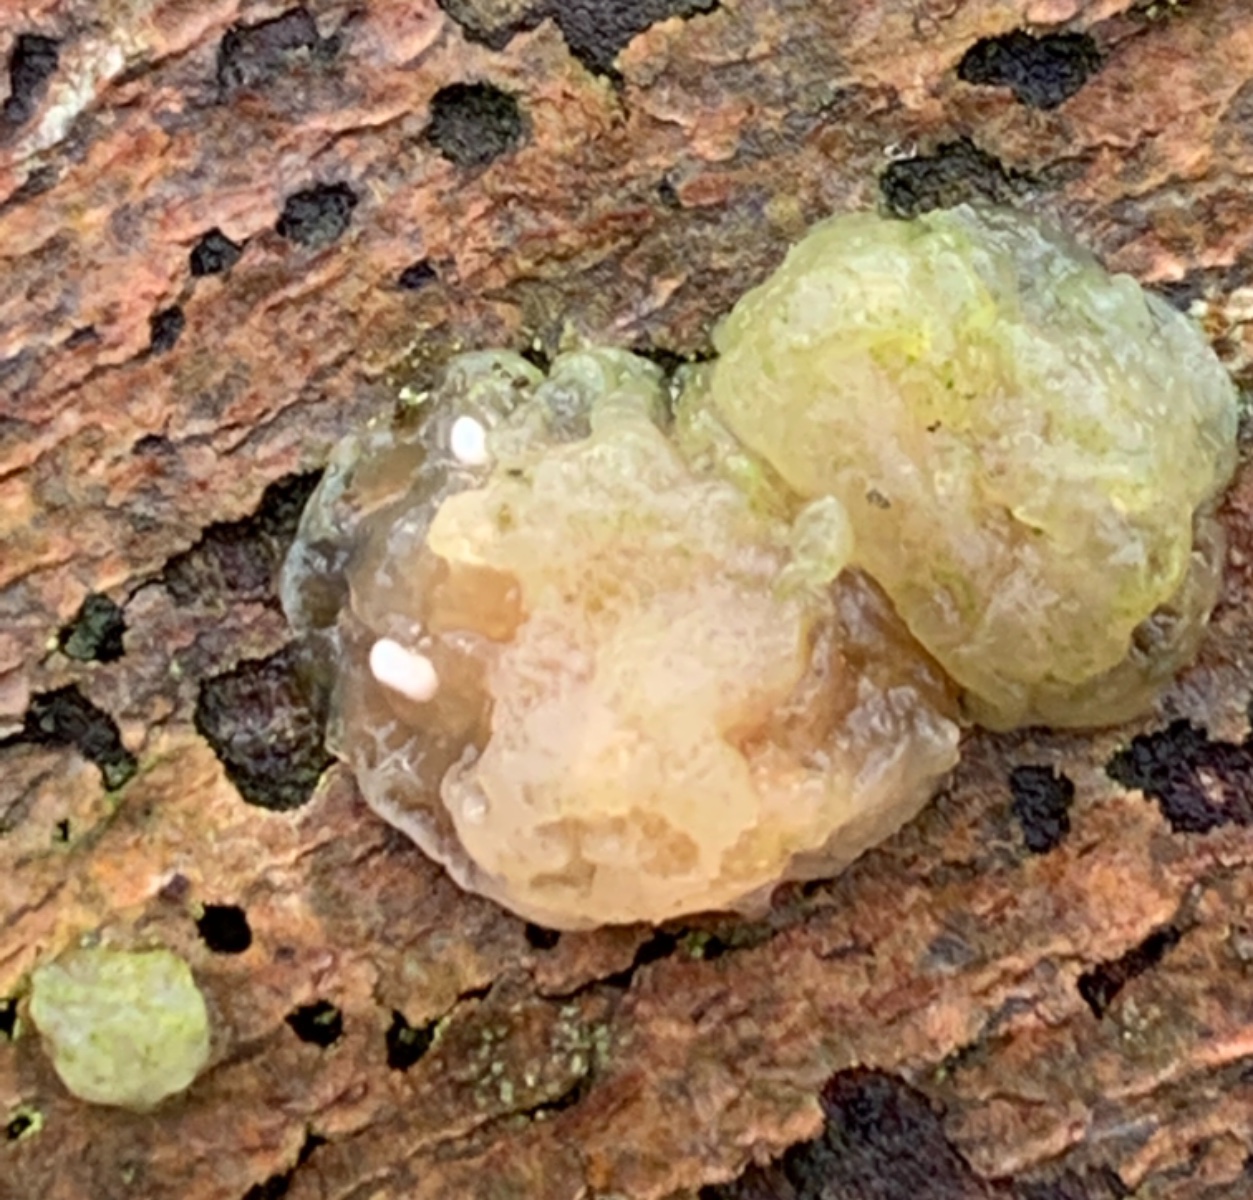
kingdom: Fungi
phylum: Basidiomycota
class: Agaricomycetes
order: Auriculariales
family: Hyaloriaceae
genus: Myxarium
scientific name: Myxarium nucleatum
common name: klar bævretop
